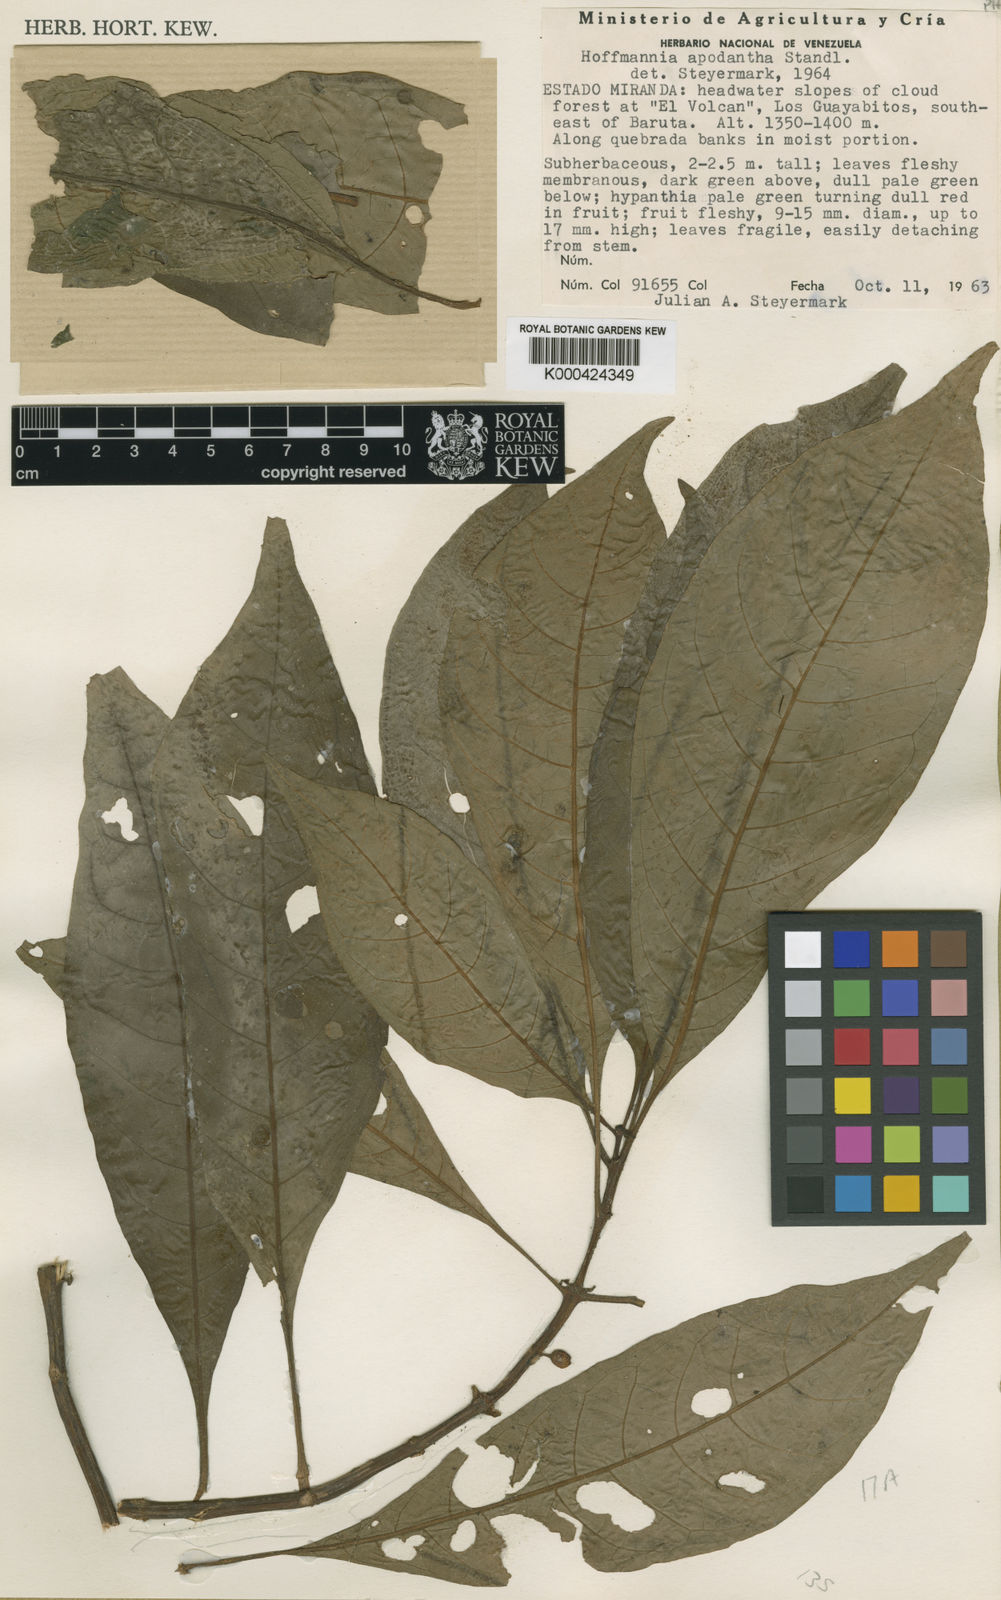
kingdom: Plantae
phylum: Tracheophyta
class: Magnoliopsida
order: Gentianales
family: Rubiaceae
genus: Hoffmannia
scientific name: Hoffmannia apodantha
